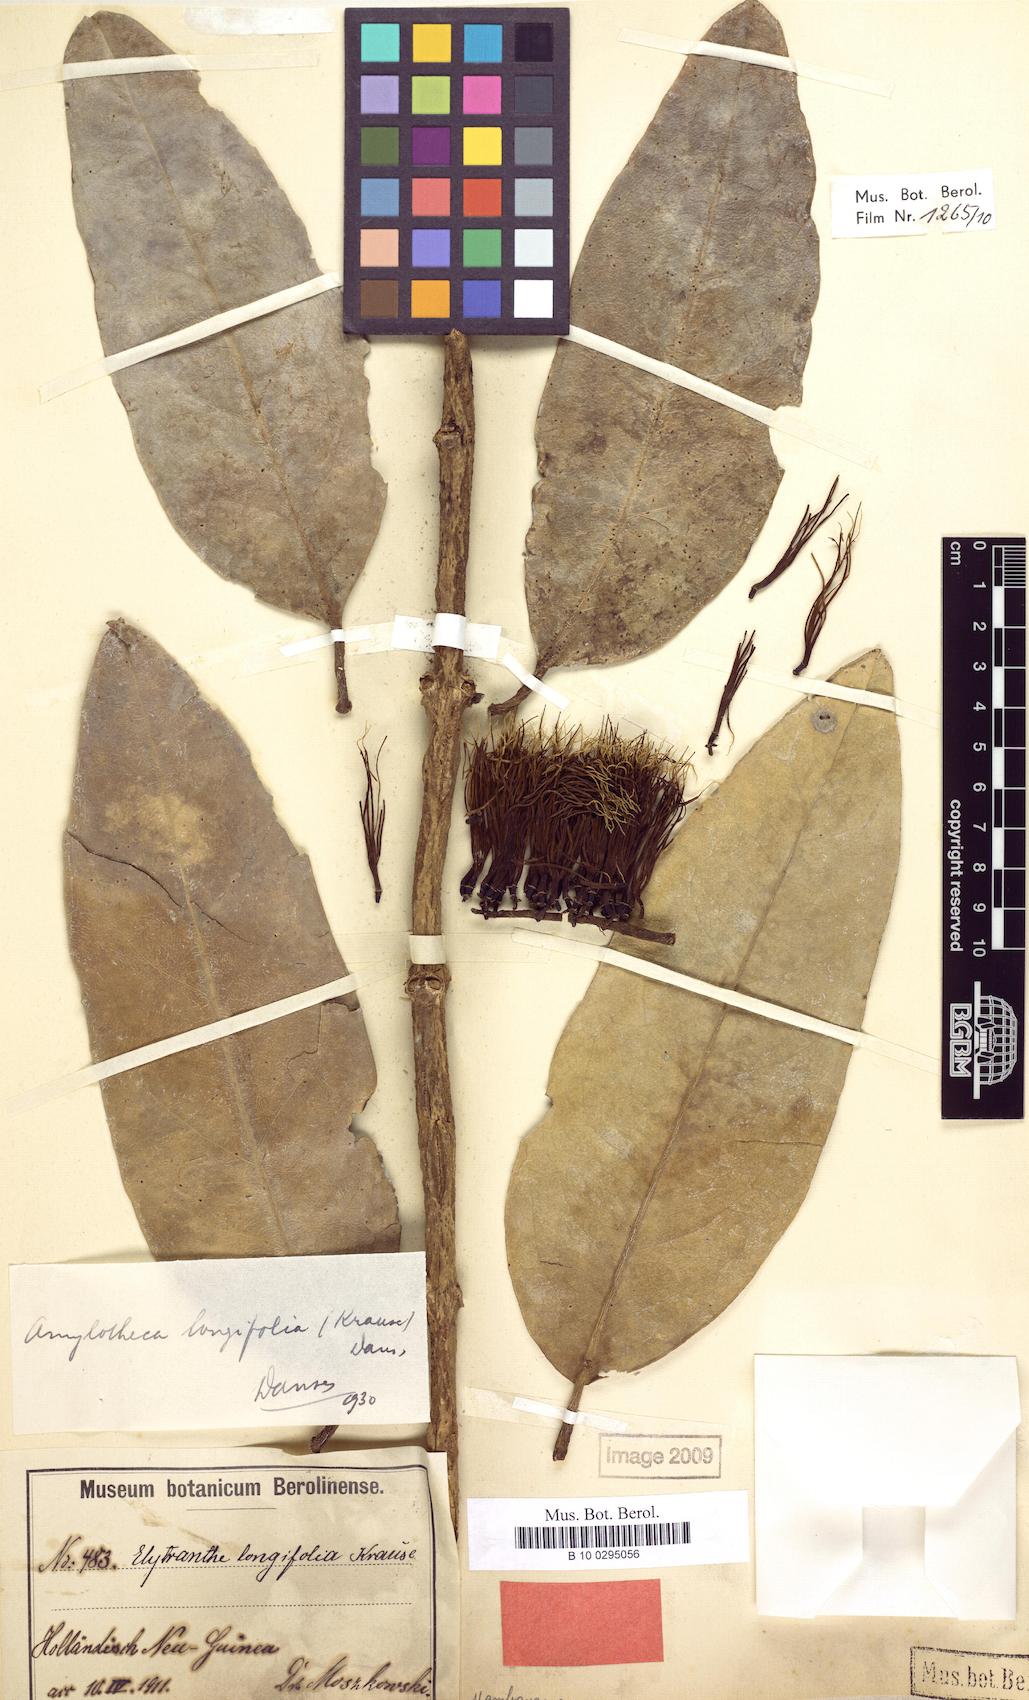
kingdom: Plantae
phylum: Tracheophyta
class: Magnoliopsida
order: Santalales
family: Loranthaceae
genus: Decaisnina
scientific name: Decaisnina hollrungii
